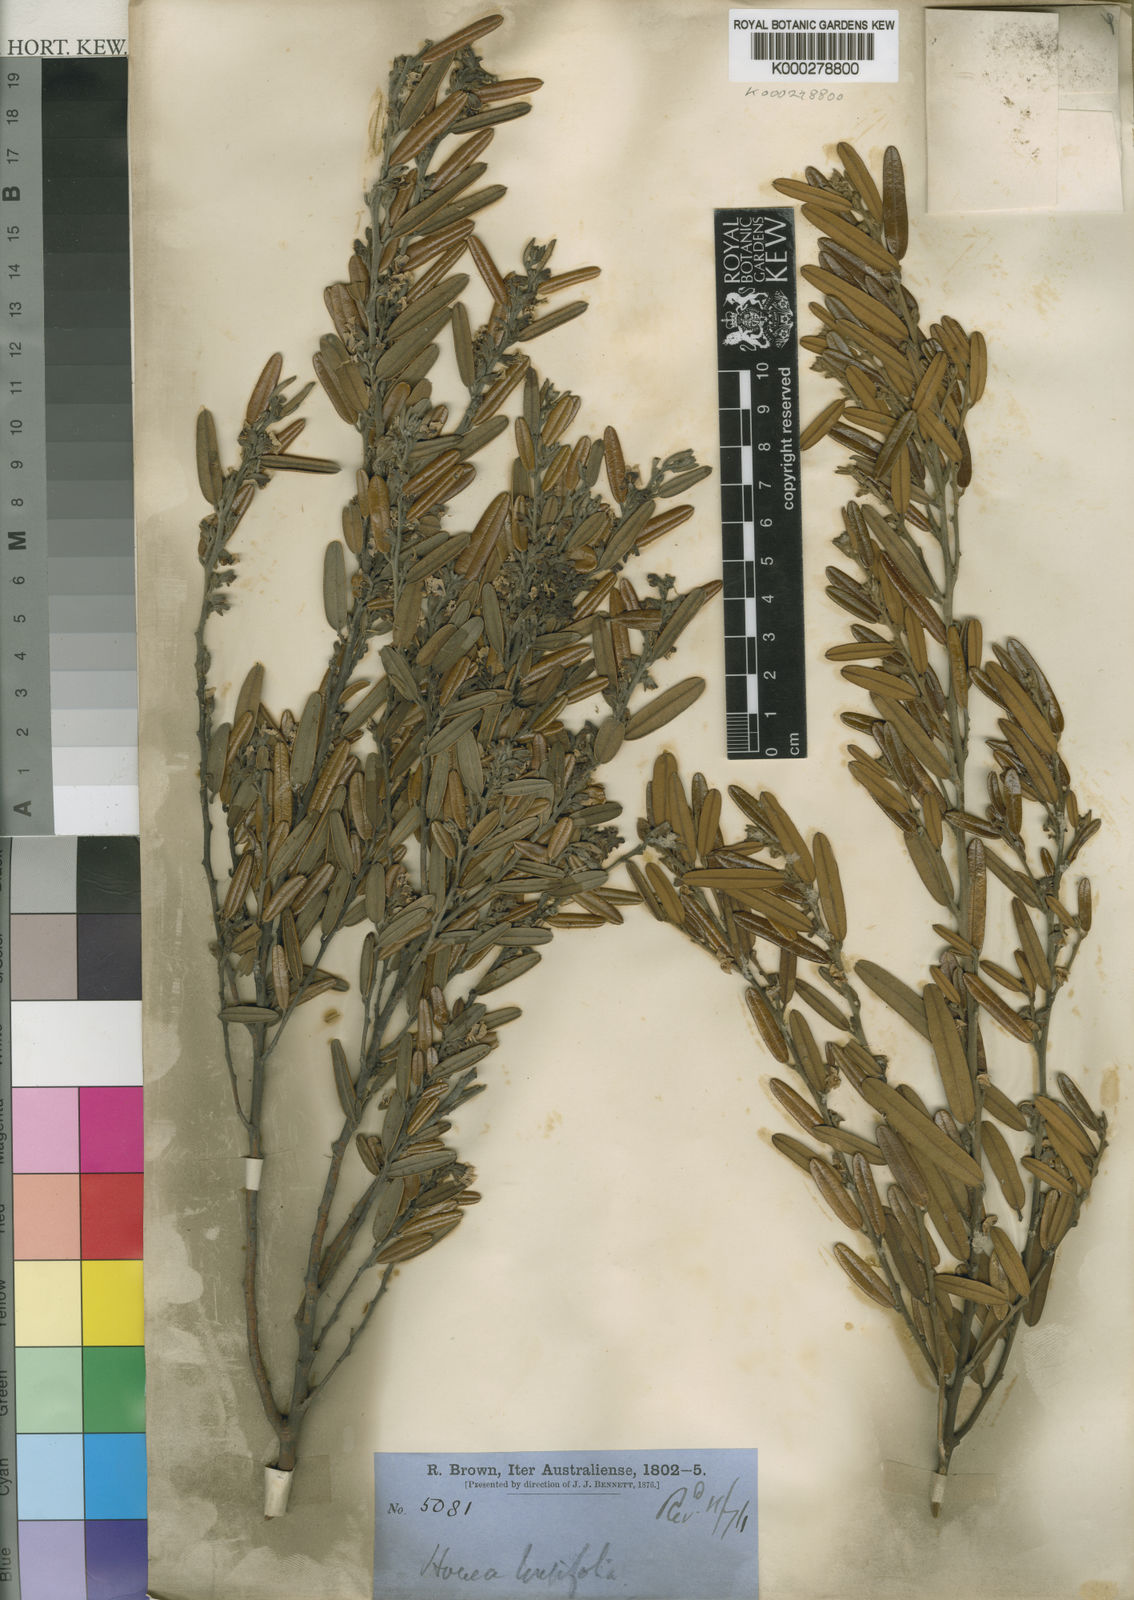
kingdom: Plantae
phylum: Tracheophyta
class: Magnoliopsida
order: Fabales
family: Fabaceae
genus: Hovea
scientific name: Hovea longifolia
